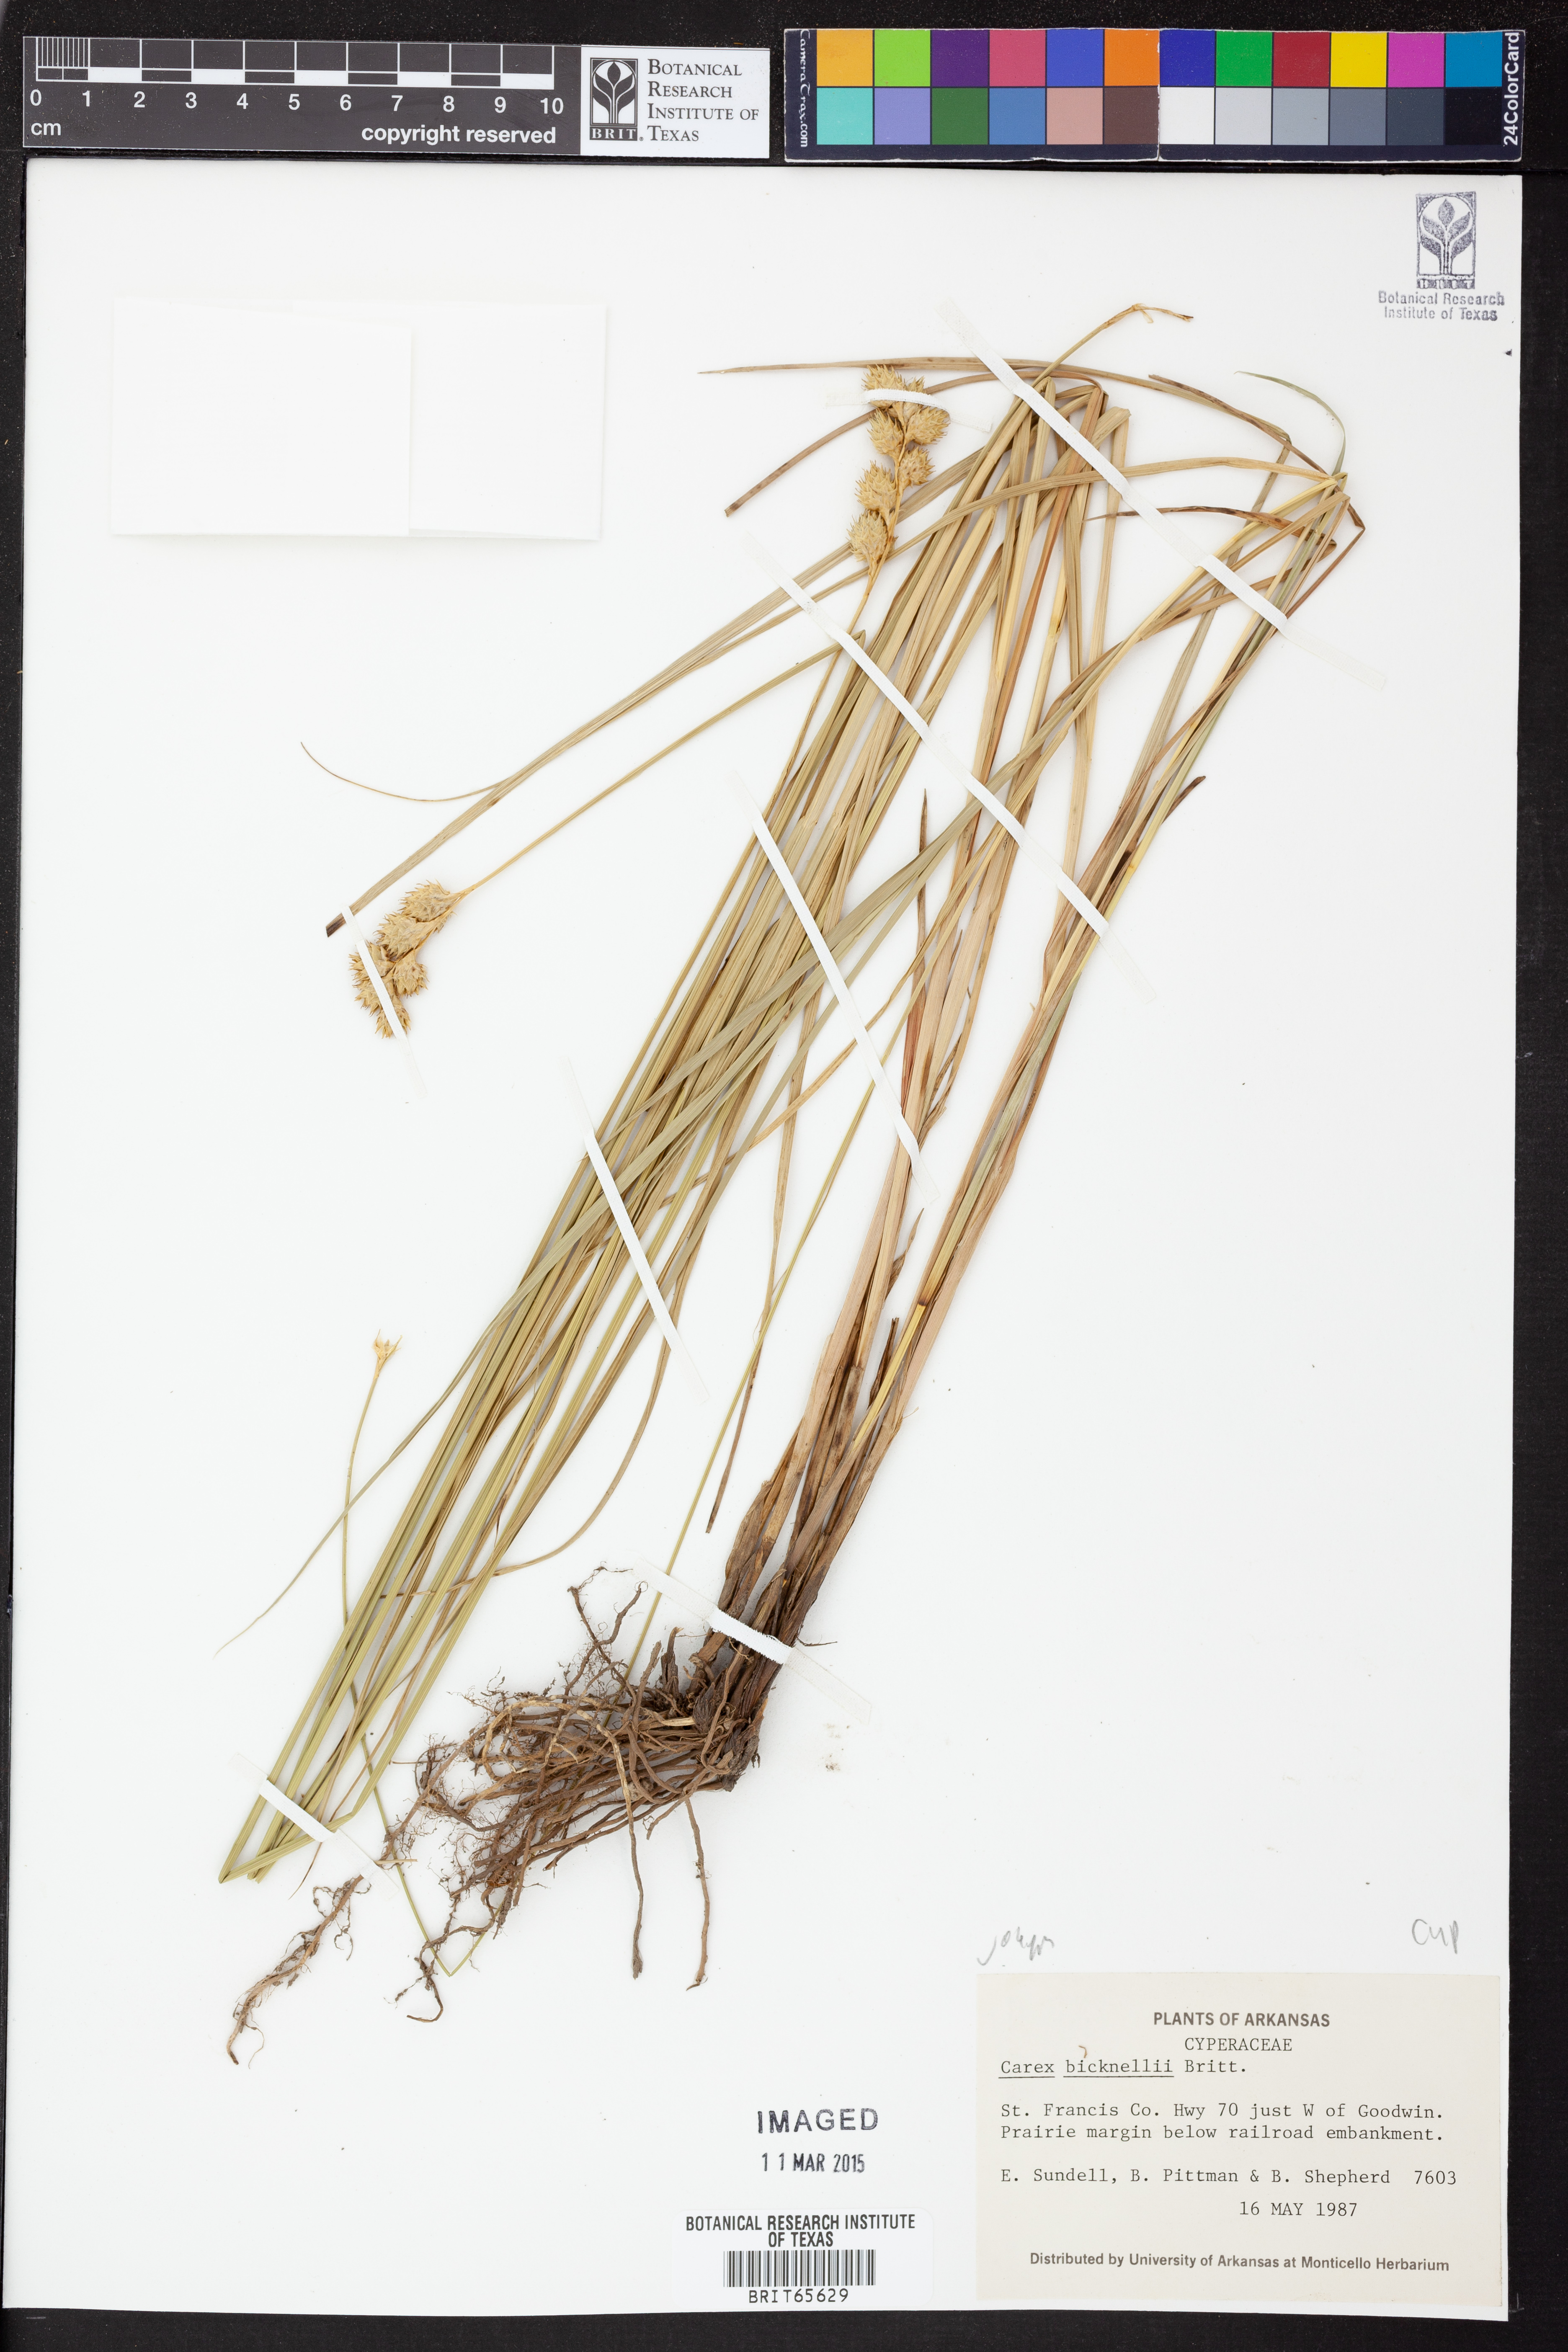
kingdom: Plantae
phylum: Tracheophyta
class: Liliopsida
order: Poales
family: Cyperaceae
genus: Carex
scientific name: Carex bicknellii
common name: Bicknell's sedge
